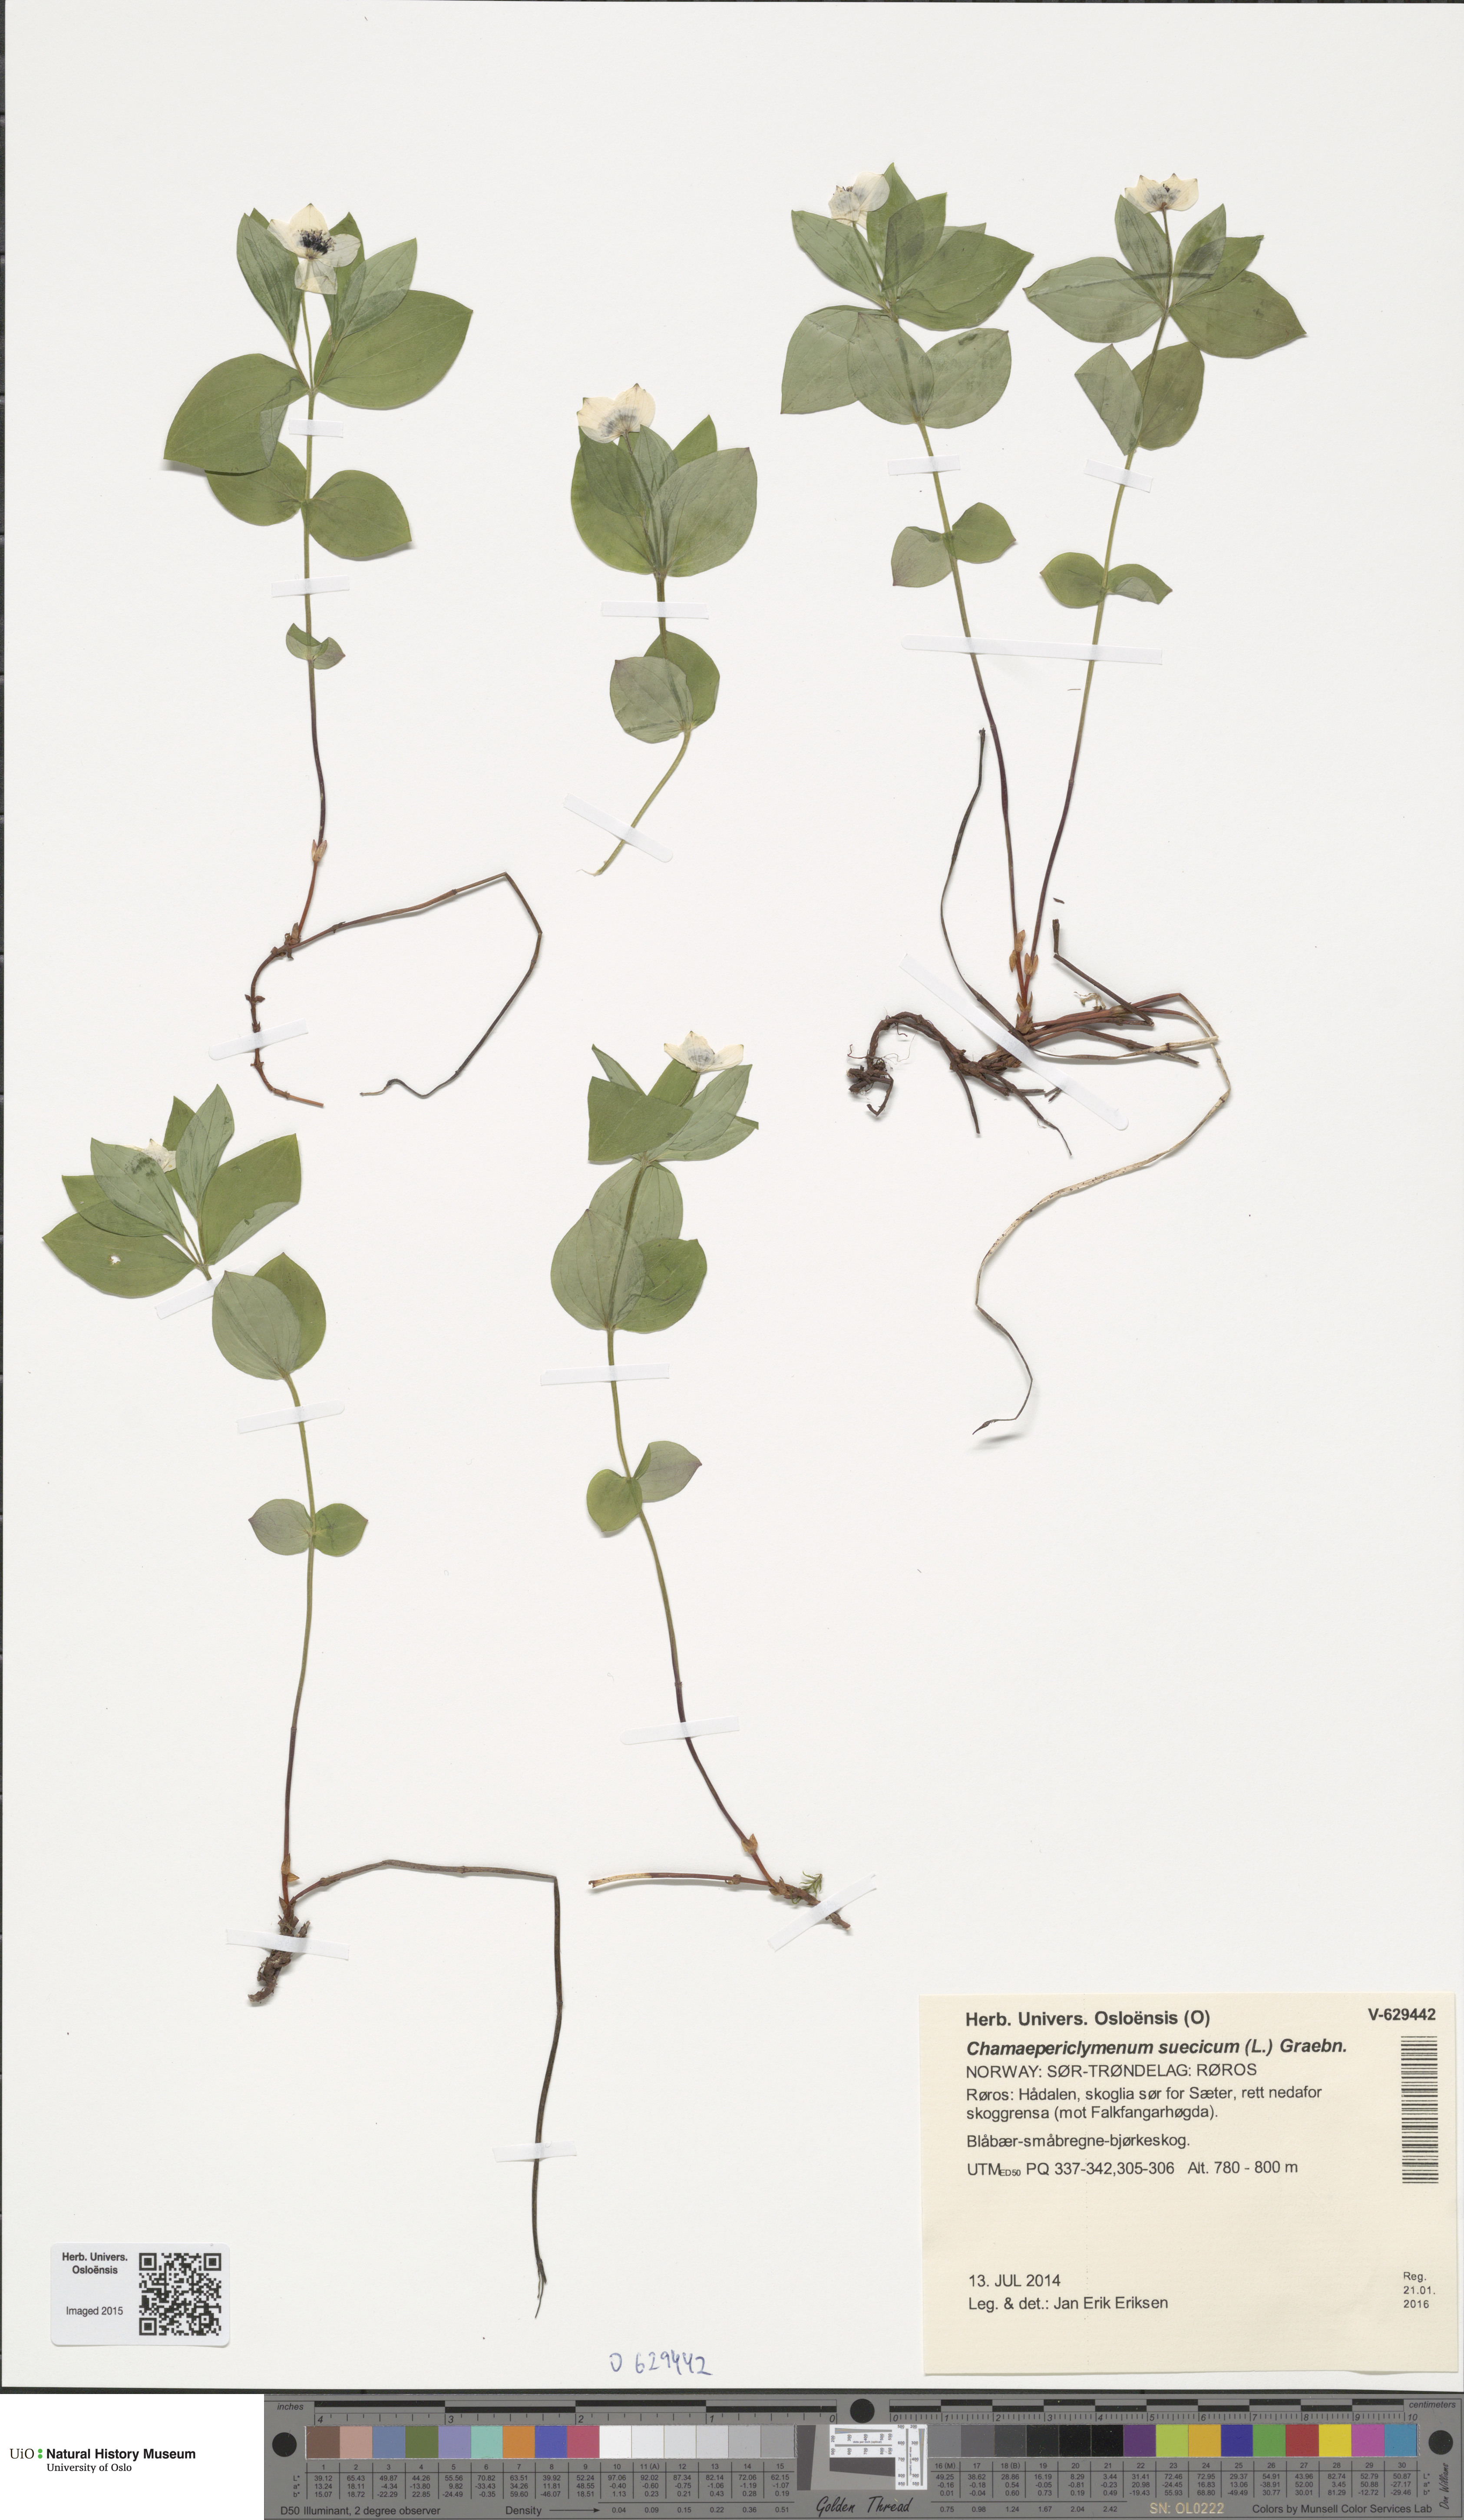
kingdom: Plantae
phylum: Tracheophyta
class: Magnoliopsida
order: Cornales
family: Cornaceae
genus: Cornus
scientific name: Cornus suecica
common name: Dwarf cornel
